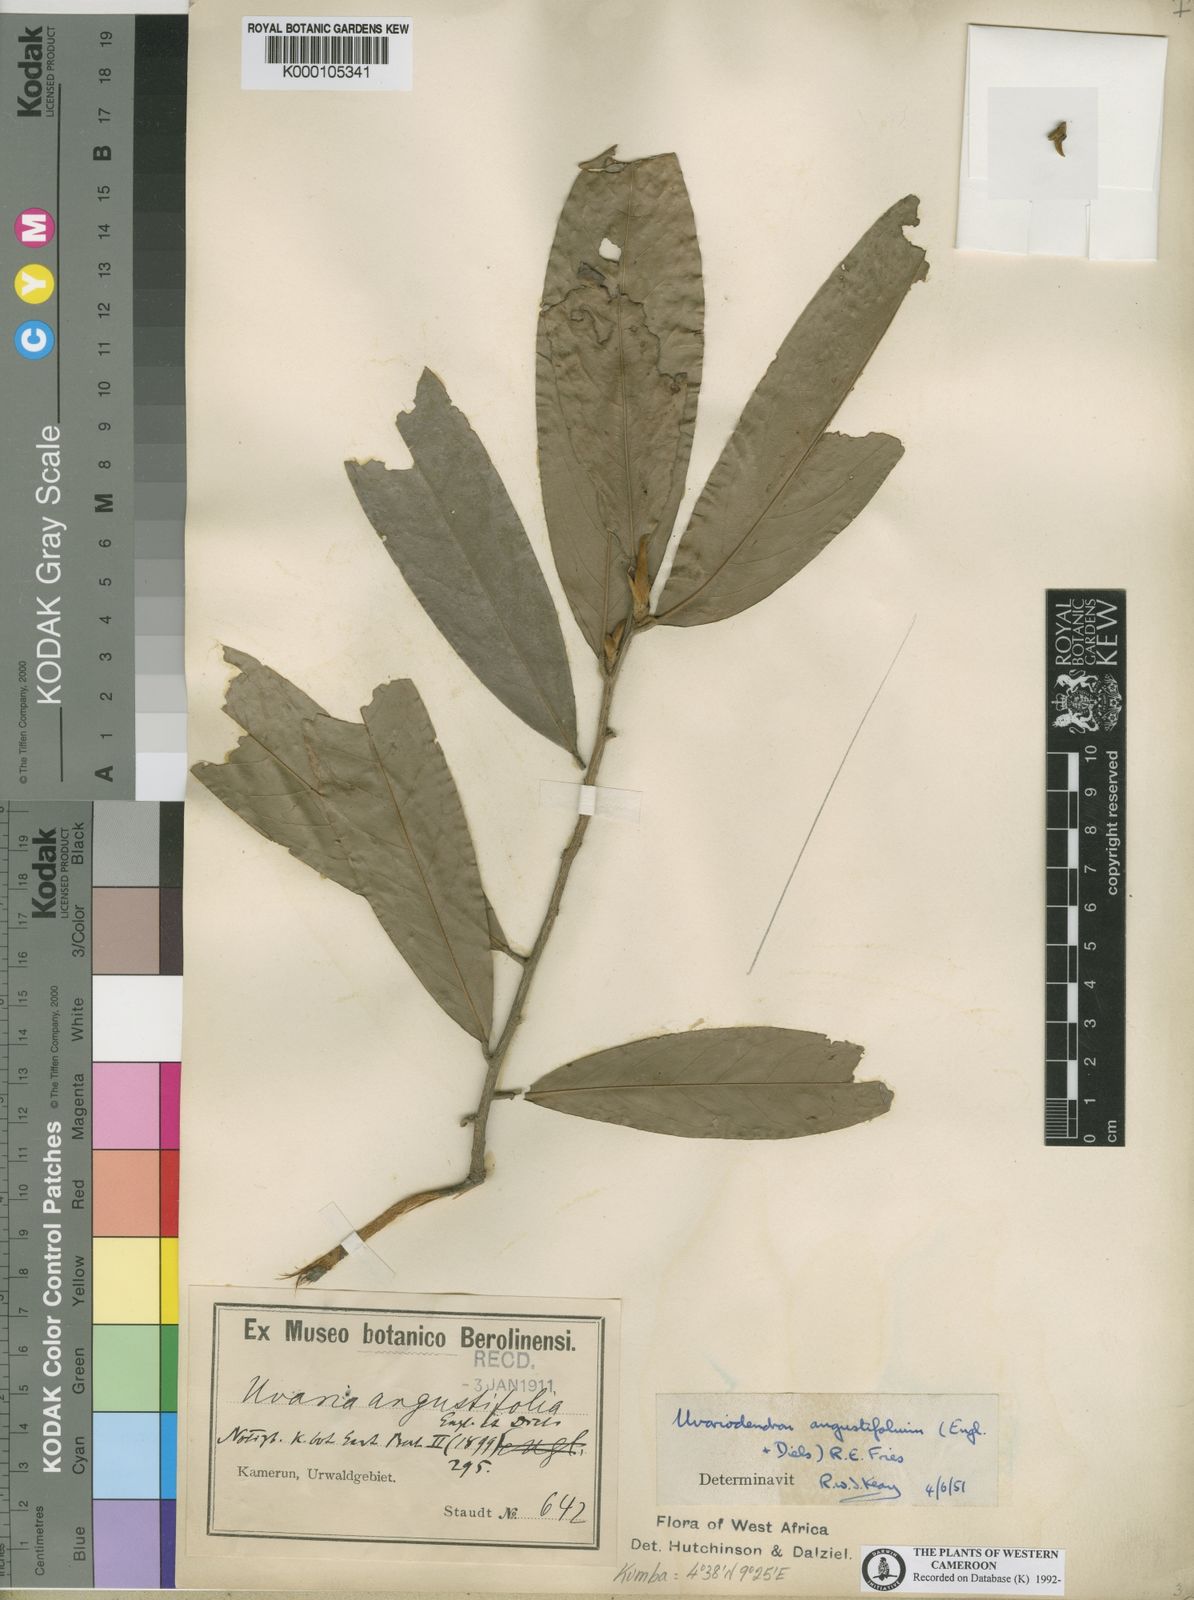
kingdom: Plantae
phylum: Tracheophyta
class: Magnoliopsida
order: Magnoliales
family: Annonaceae
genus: Uvariodendron
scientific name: Uvariodendron angustifolium
